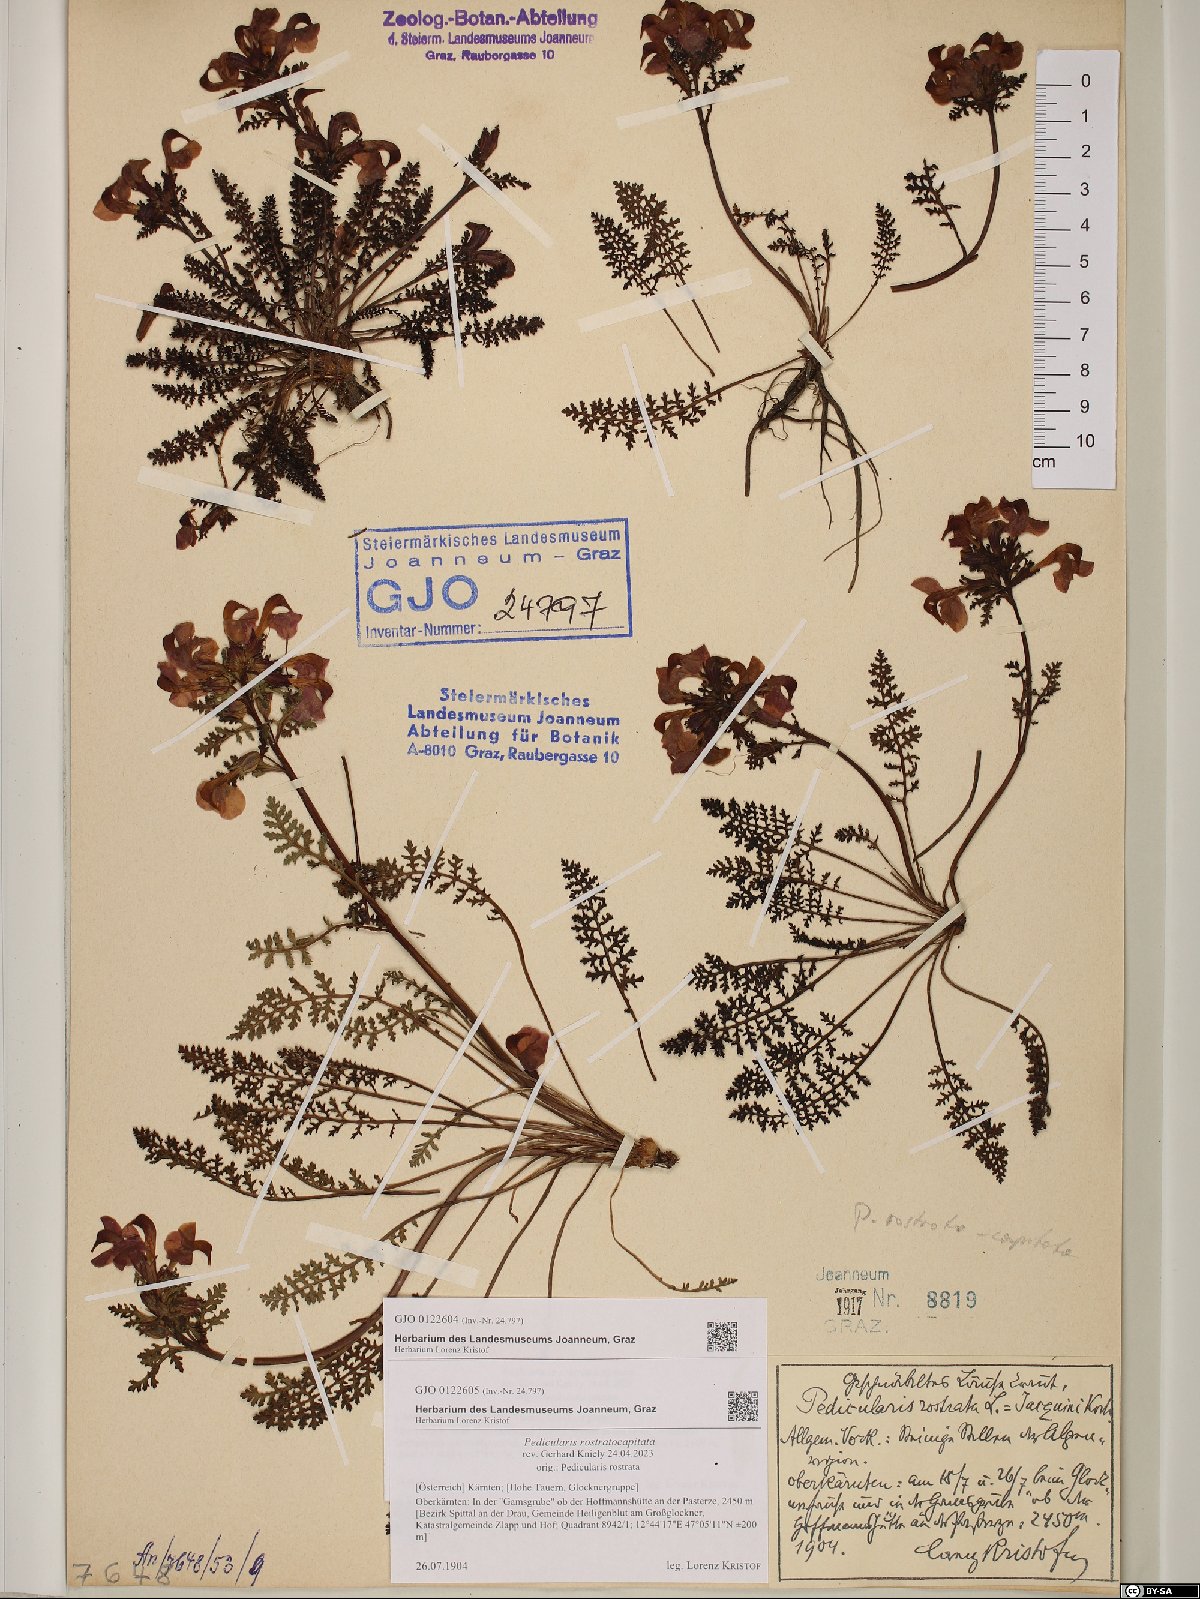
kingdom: Plantae
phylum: Tracheophyta
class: Magnoliopsida
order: Lamiales
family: Orobanchaceae
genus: Pedicularis
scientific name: Pedicularis rostratocapitata
